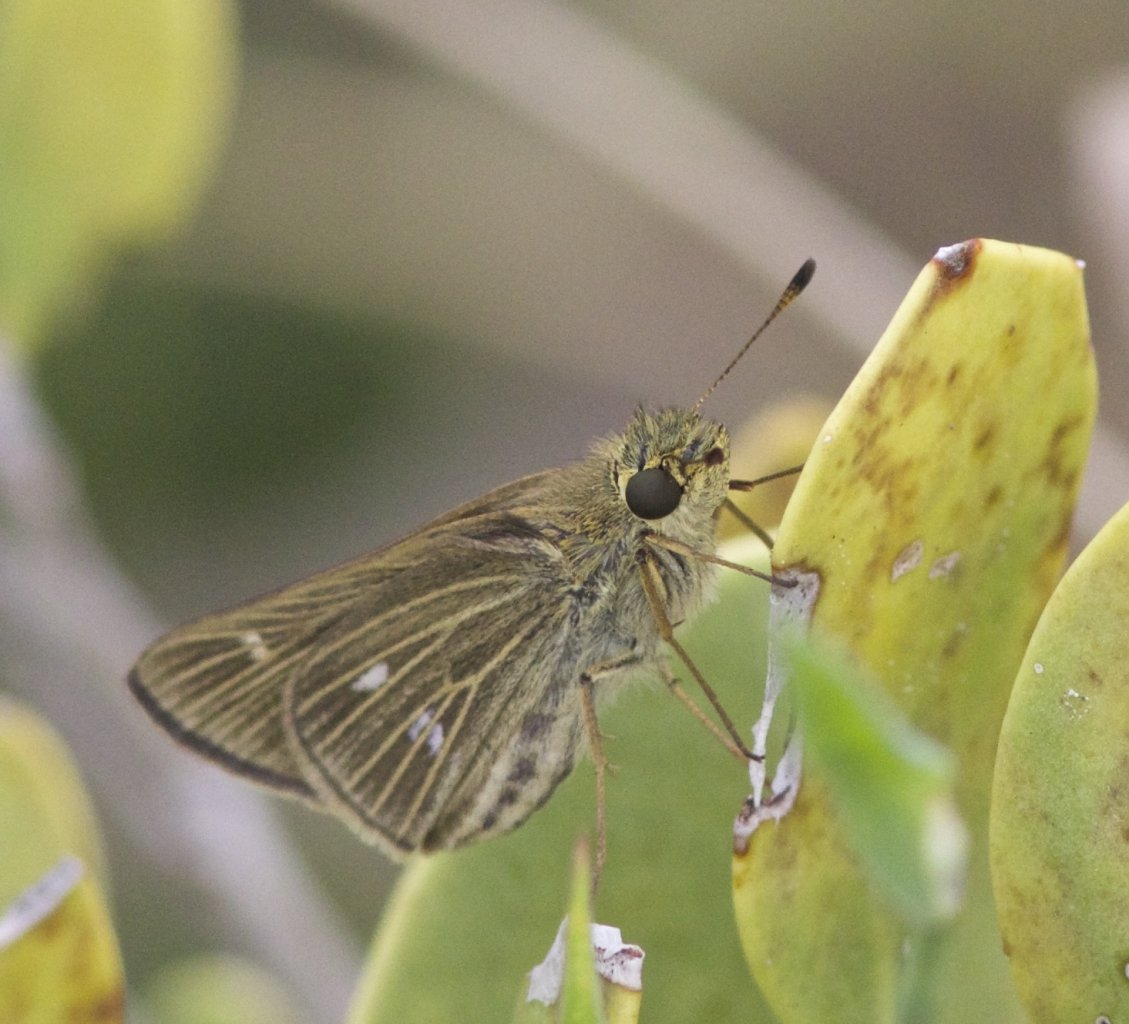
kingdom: Animalia
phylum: Arthropoda
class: Insecta
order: Lepidoptera
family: Hesperiidae
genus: Panoquina
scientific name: Panoquina panoquinoides
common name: Obscure Skipper
